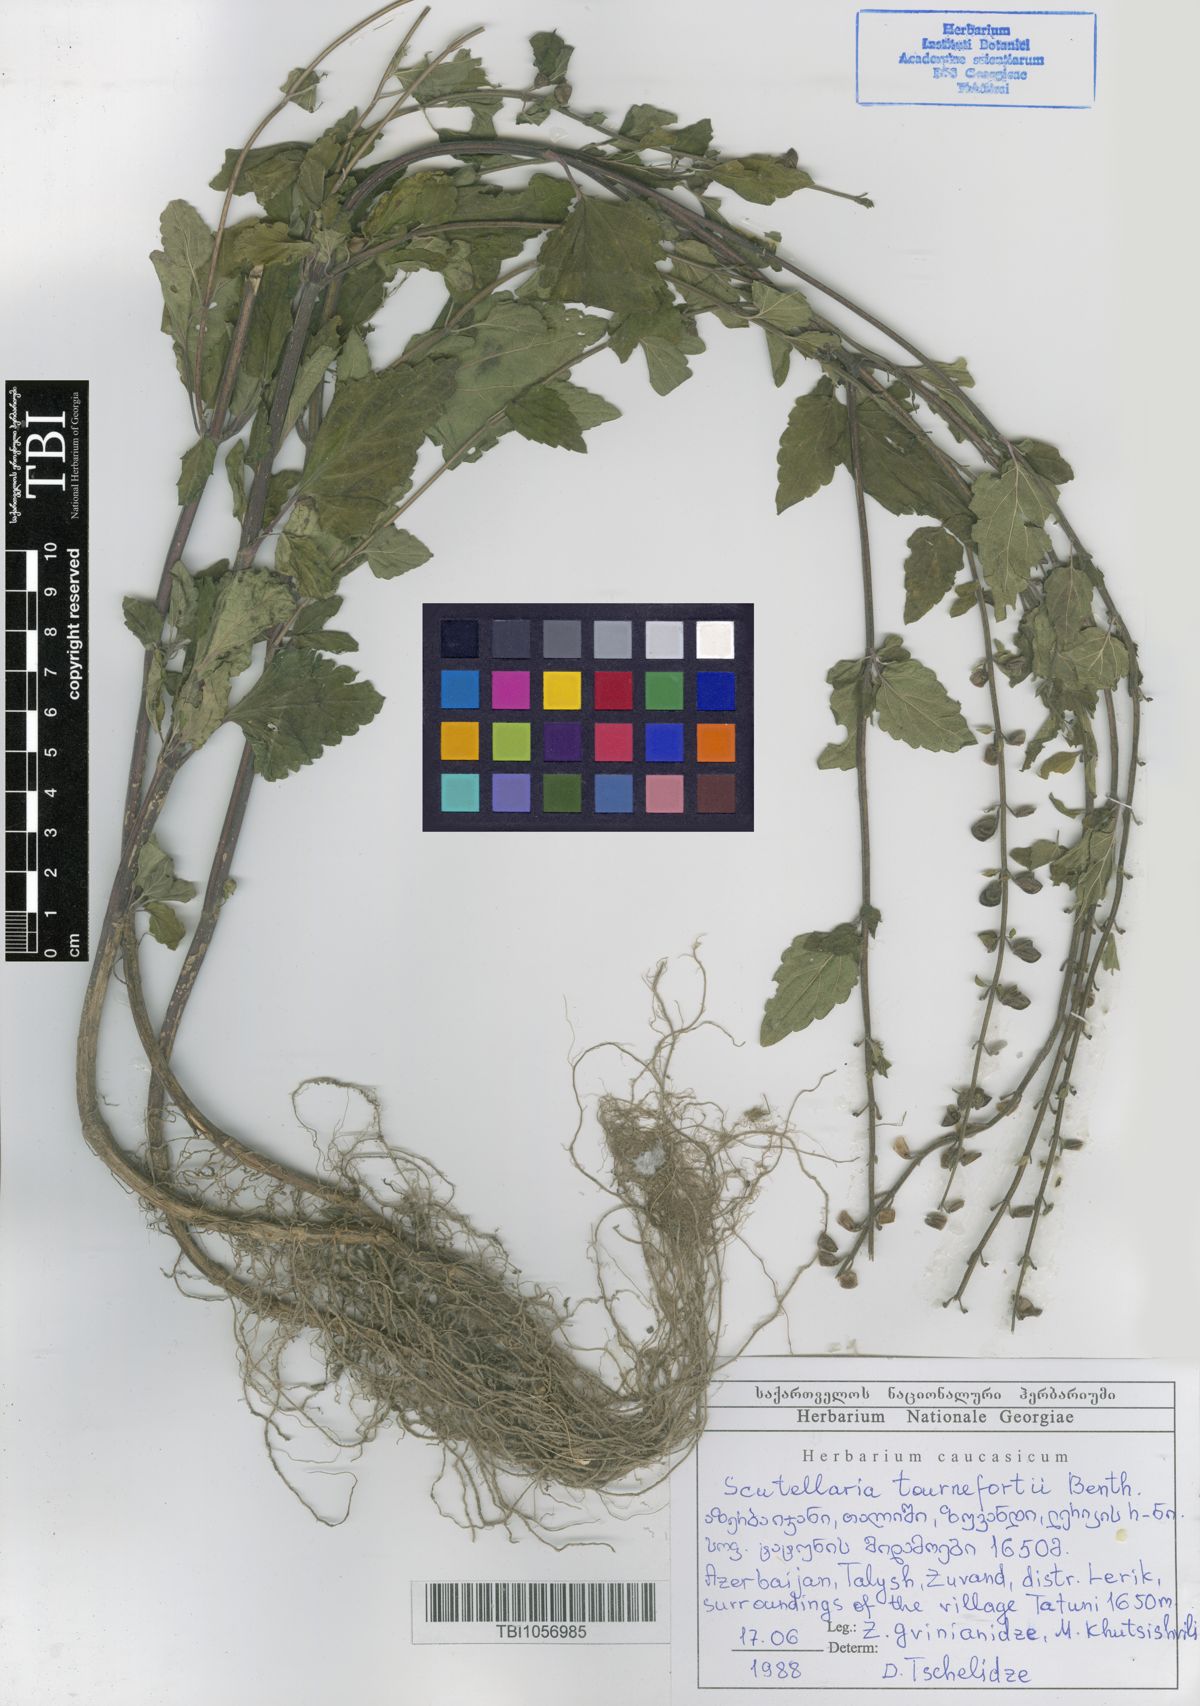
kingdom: Plantae
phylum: Tracheophyta
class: Magnoliopsida
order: Lamiales
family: Lamiaceae
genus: Scutellaria
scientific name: Scutellaria tournefortii
